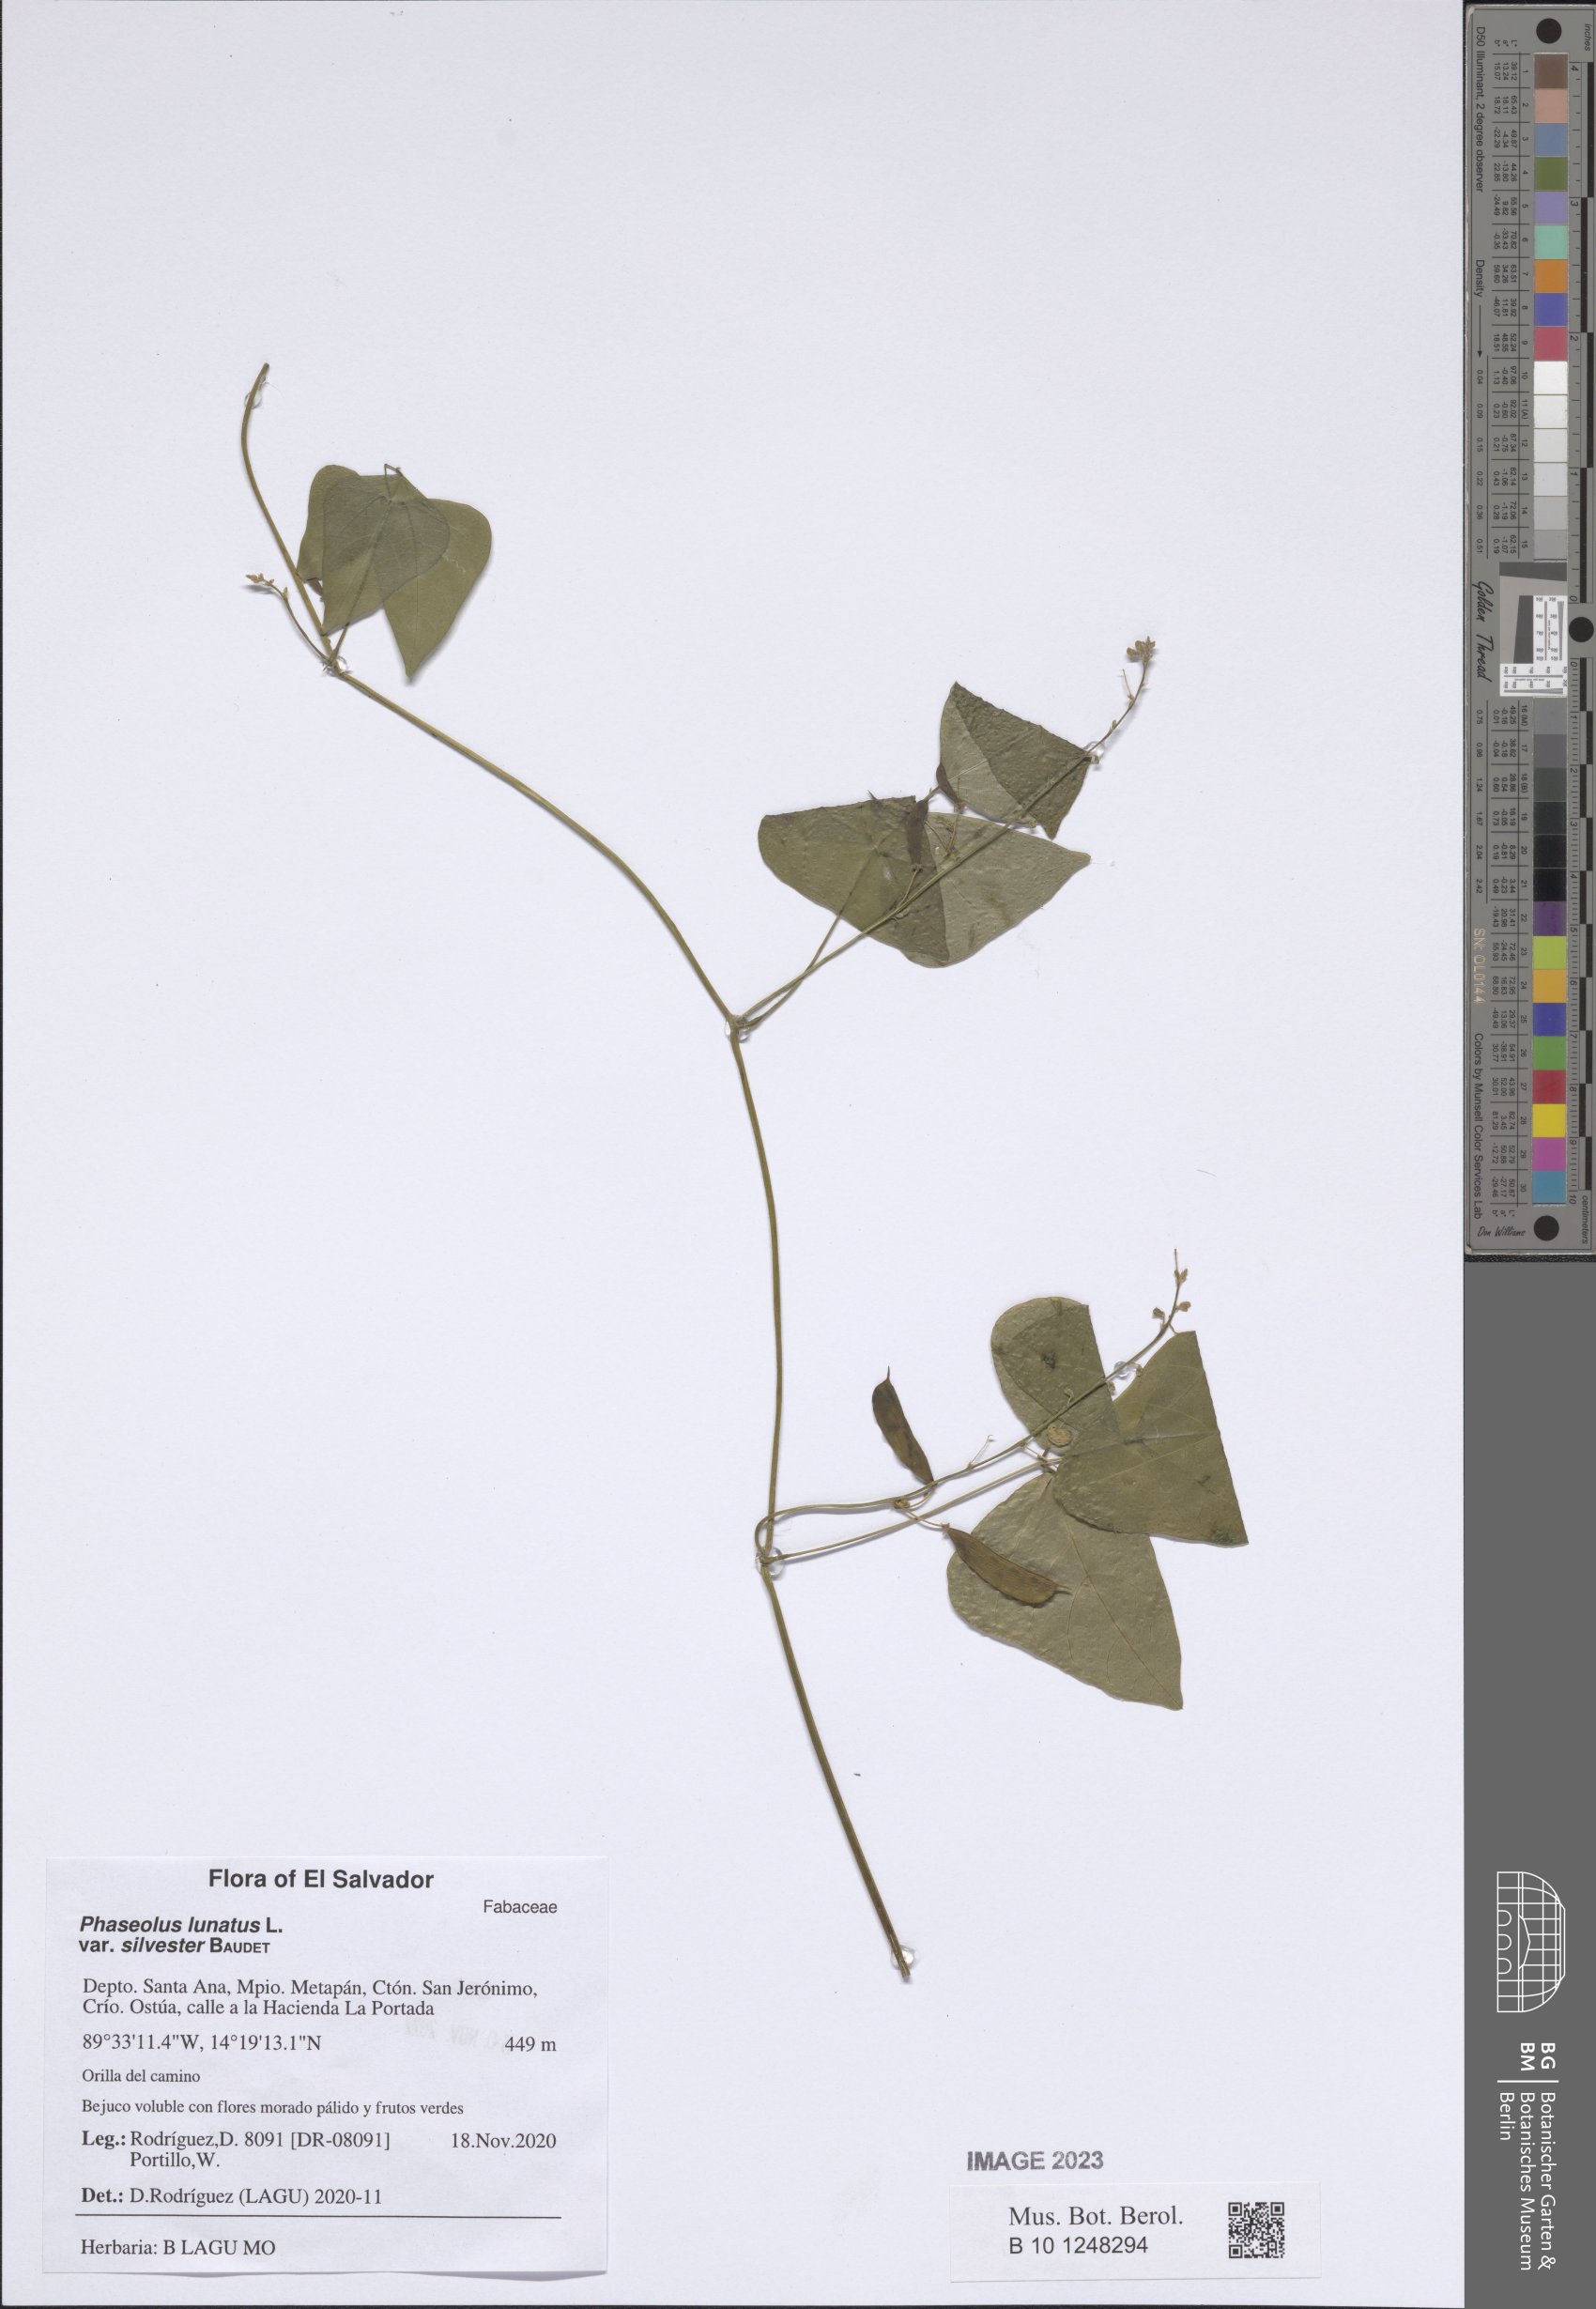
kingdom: Plantae
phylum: Tracheophyta
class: Magnoliopsida
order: Fabales
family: Fabaceae
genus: Phaseolus
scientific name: Phaseolus lunatus
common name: Sieva bean
